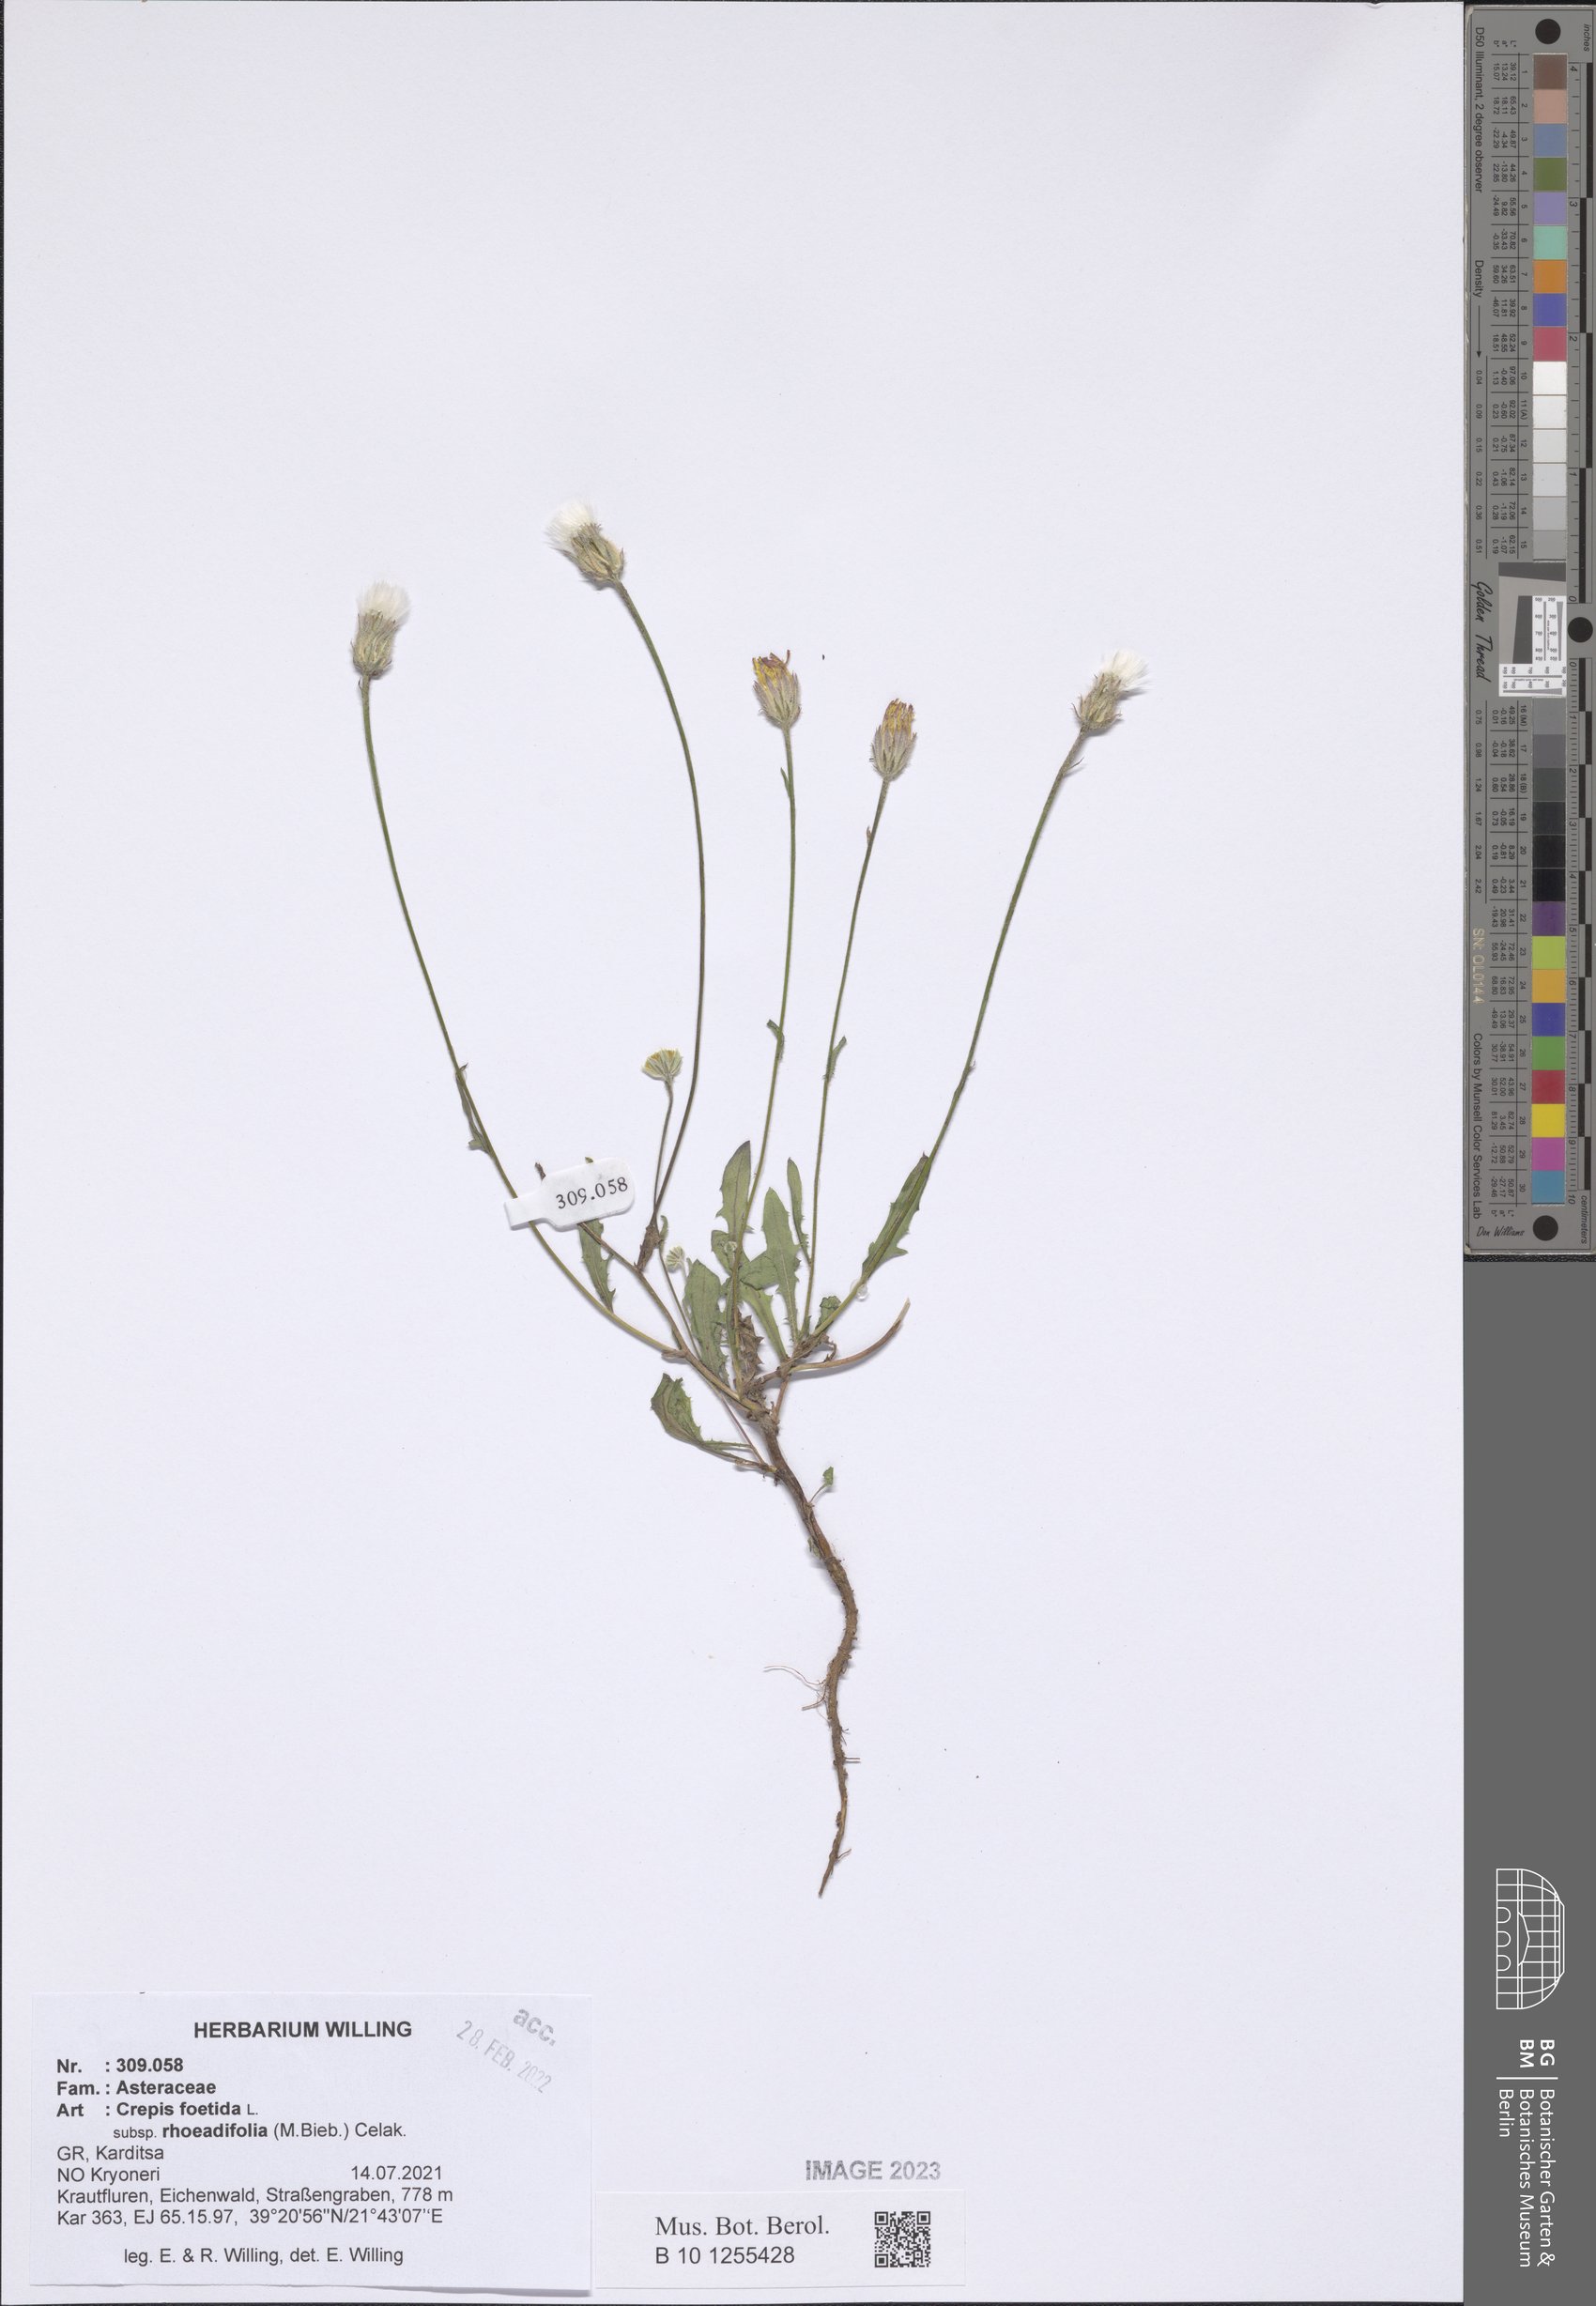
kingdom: Plantae
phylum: Tracheophyta
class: Magnoliopsida
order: Asterales
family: Asteraceae
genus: Crepis
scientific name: Crepis foetida
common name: Stinking hawk's-beard
